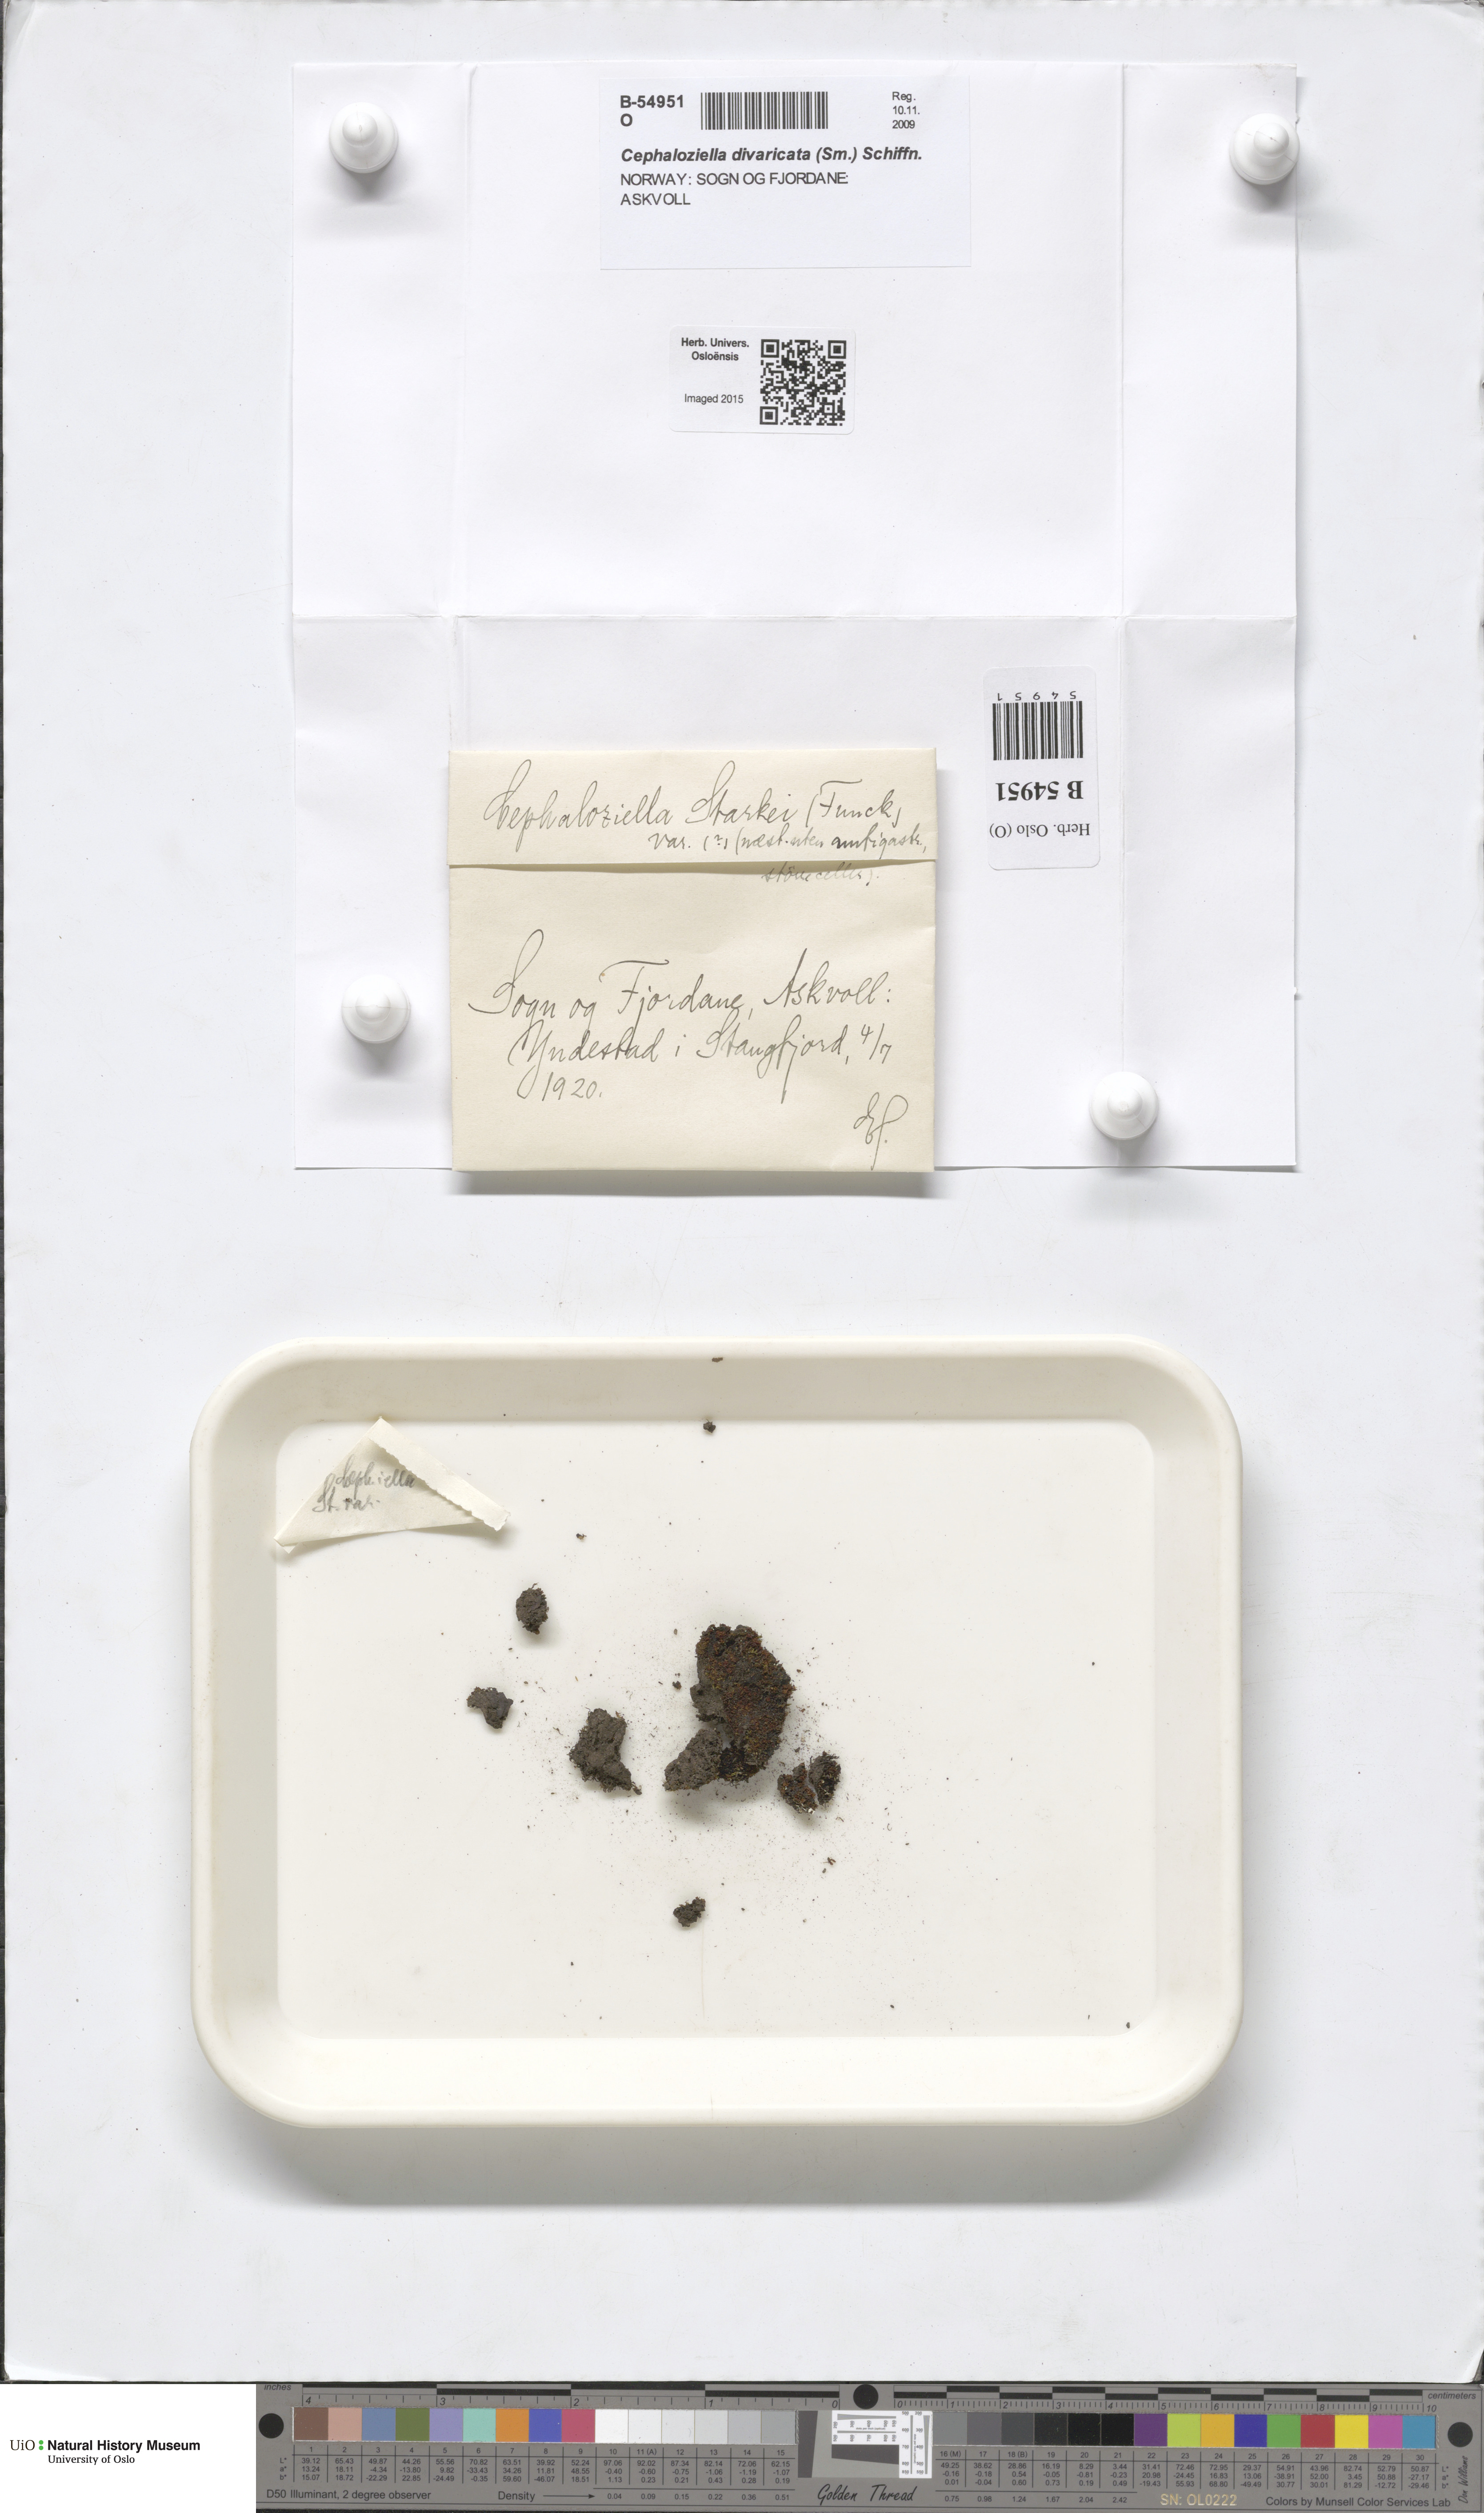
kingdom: Plantae
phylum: Marchantiophyta
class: Jungermanniopsida
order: Jungermanniales
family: Cephaloziellaceae
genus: Cephaloziella
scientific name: Cephaloziella divaricata
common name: Spreading threadwort
